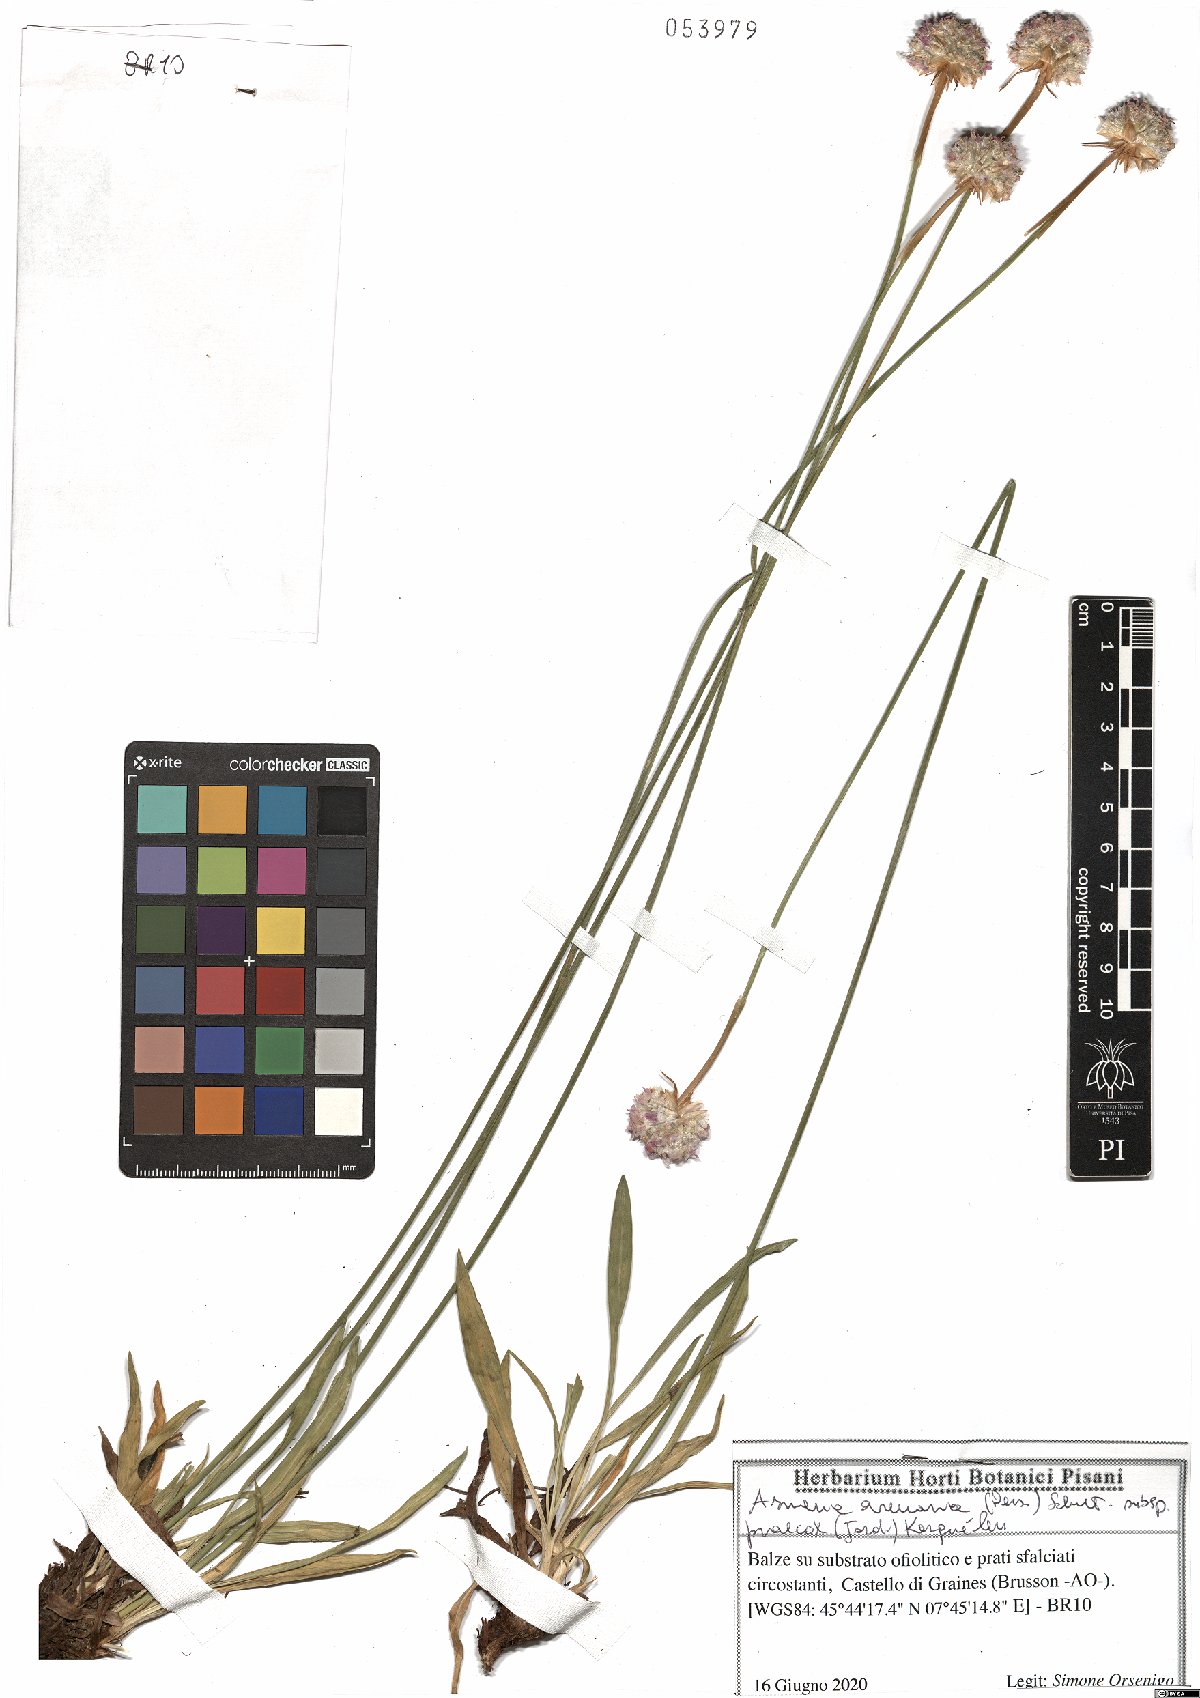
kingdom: Plantae
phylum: Tracheophyta
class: Magnoliopsida
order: Caryophyllales
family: Plumbaginaceae
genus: Armeria
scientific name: Armeria arenaria
